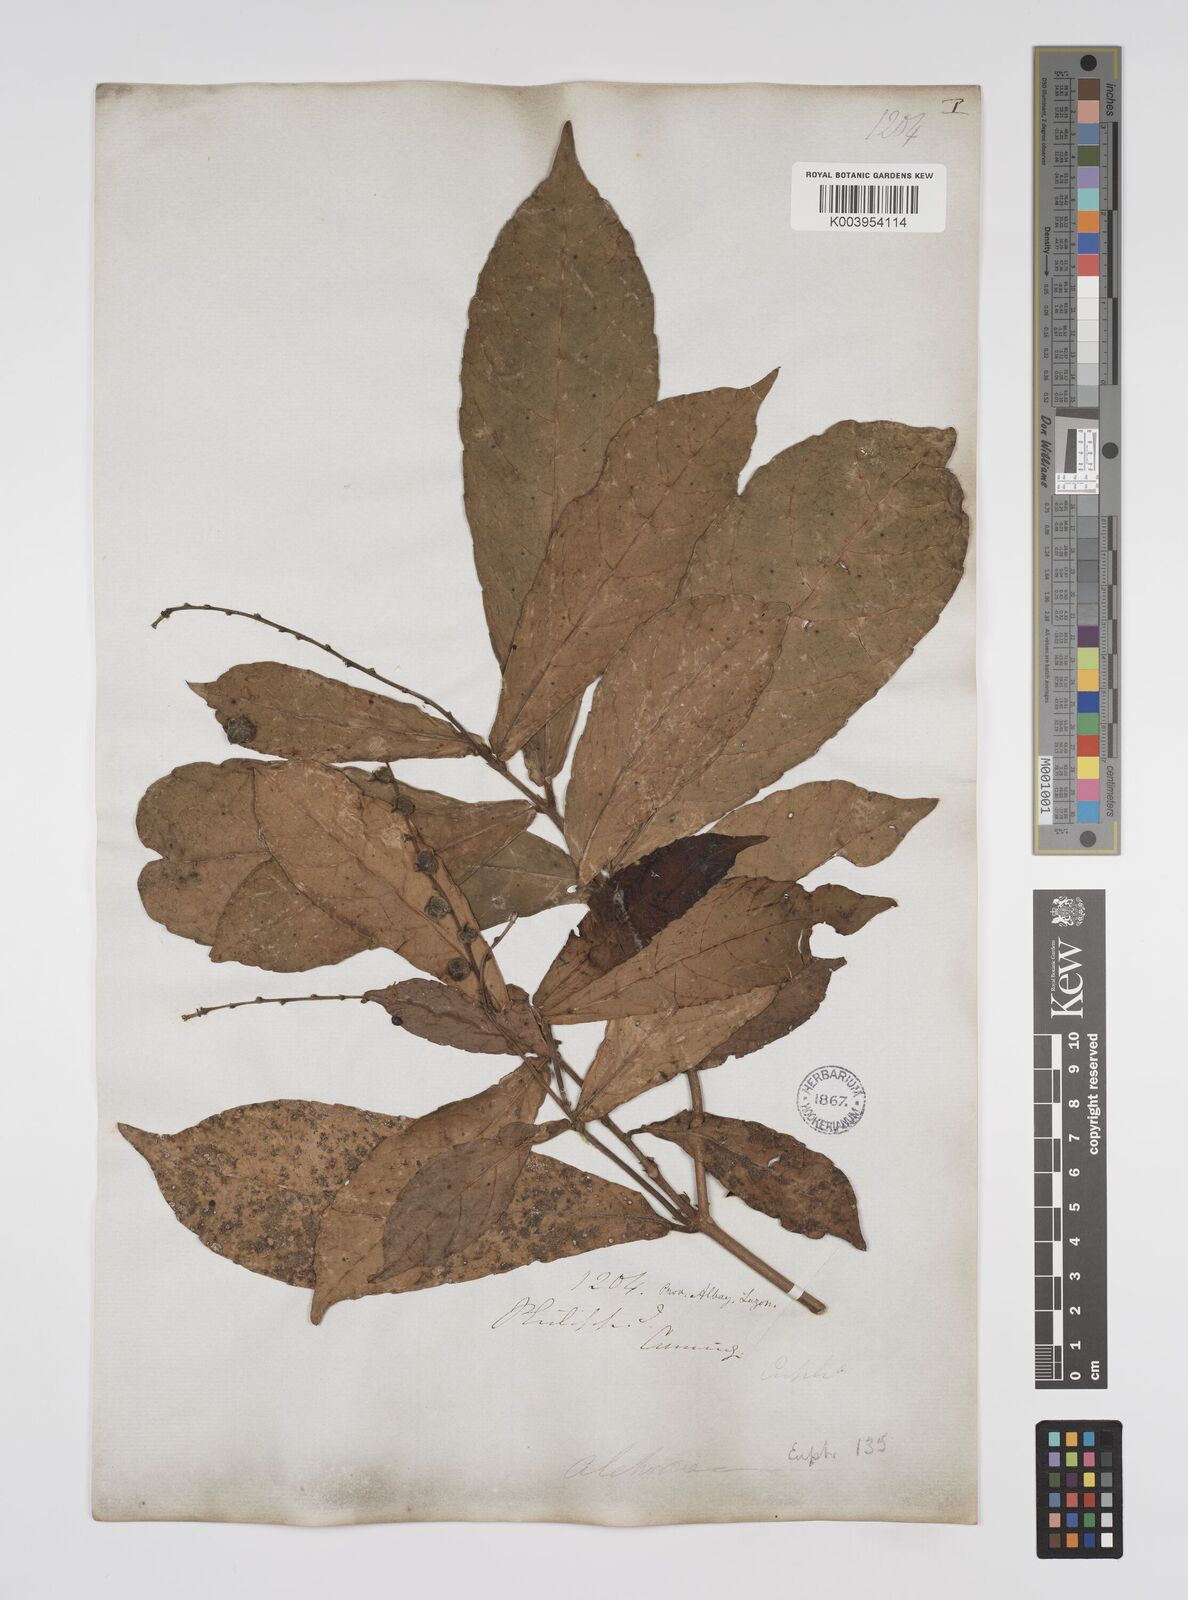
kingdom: Plantae
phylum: Tracheophyta
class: Magnoliopsida
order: Malpighiales
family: Euphorbiaceae
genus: Alchornea
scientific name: Alchornea rugosa
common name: Alchorntree
